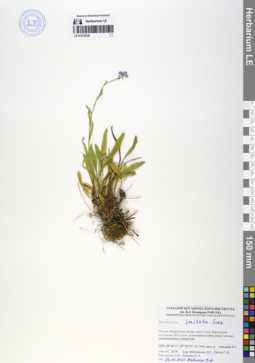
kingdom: Plantae
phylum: Tracheophyta
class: Magnoliopsida
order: Boraginales
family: Boraginaceae
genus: Myosotis
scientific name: Myosotis imitata
